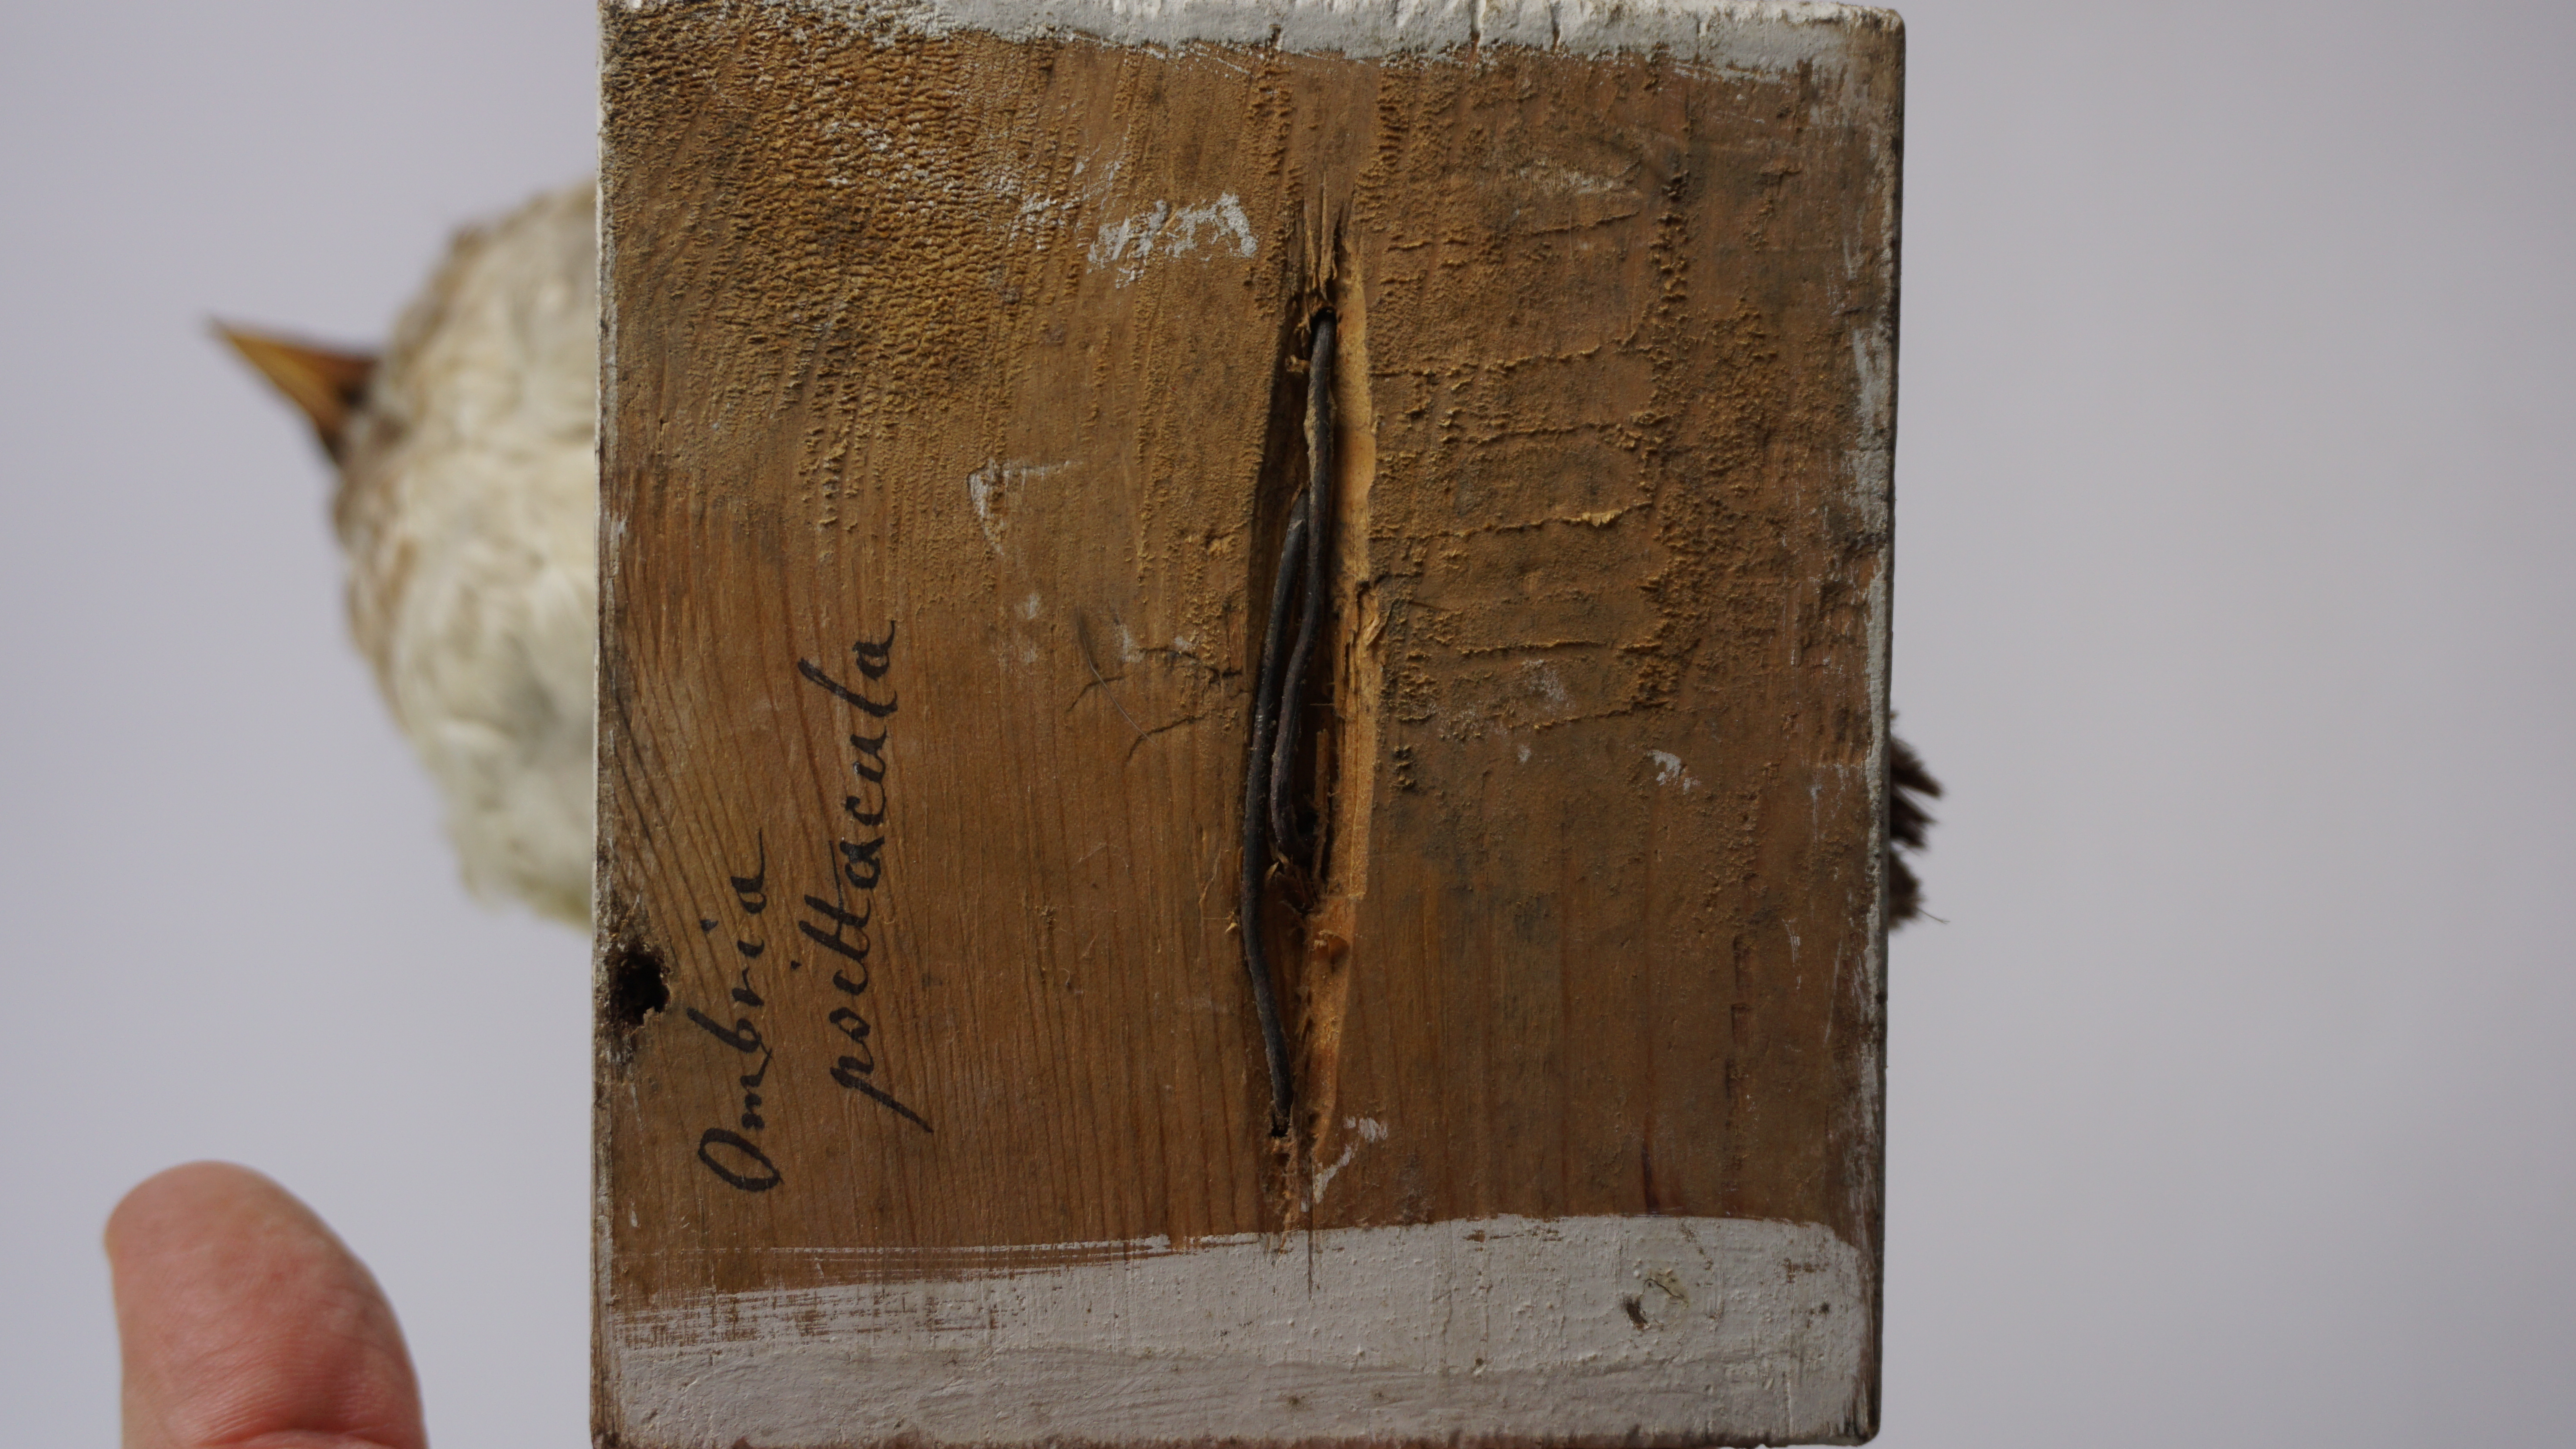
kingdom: Animalia
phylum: Chordata
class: Aves
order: Charadriiformes
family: Alcidae
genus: Aethia
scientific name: Aethia psittacula
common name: Parakeet auklet
